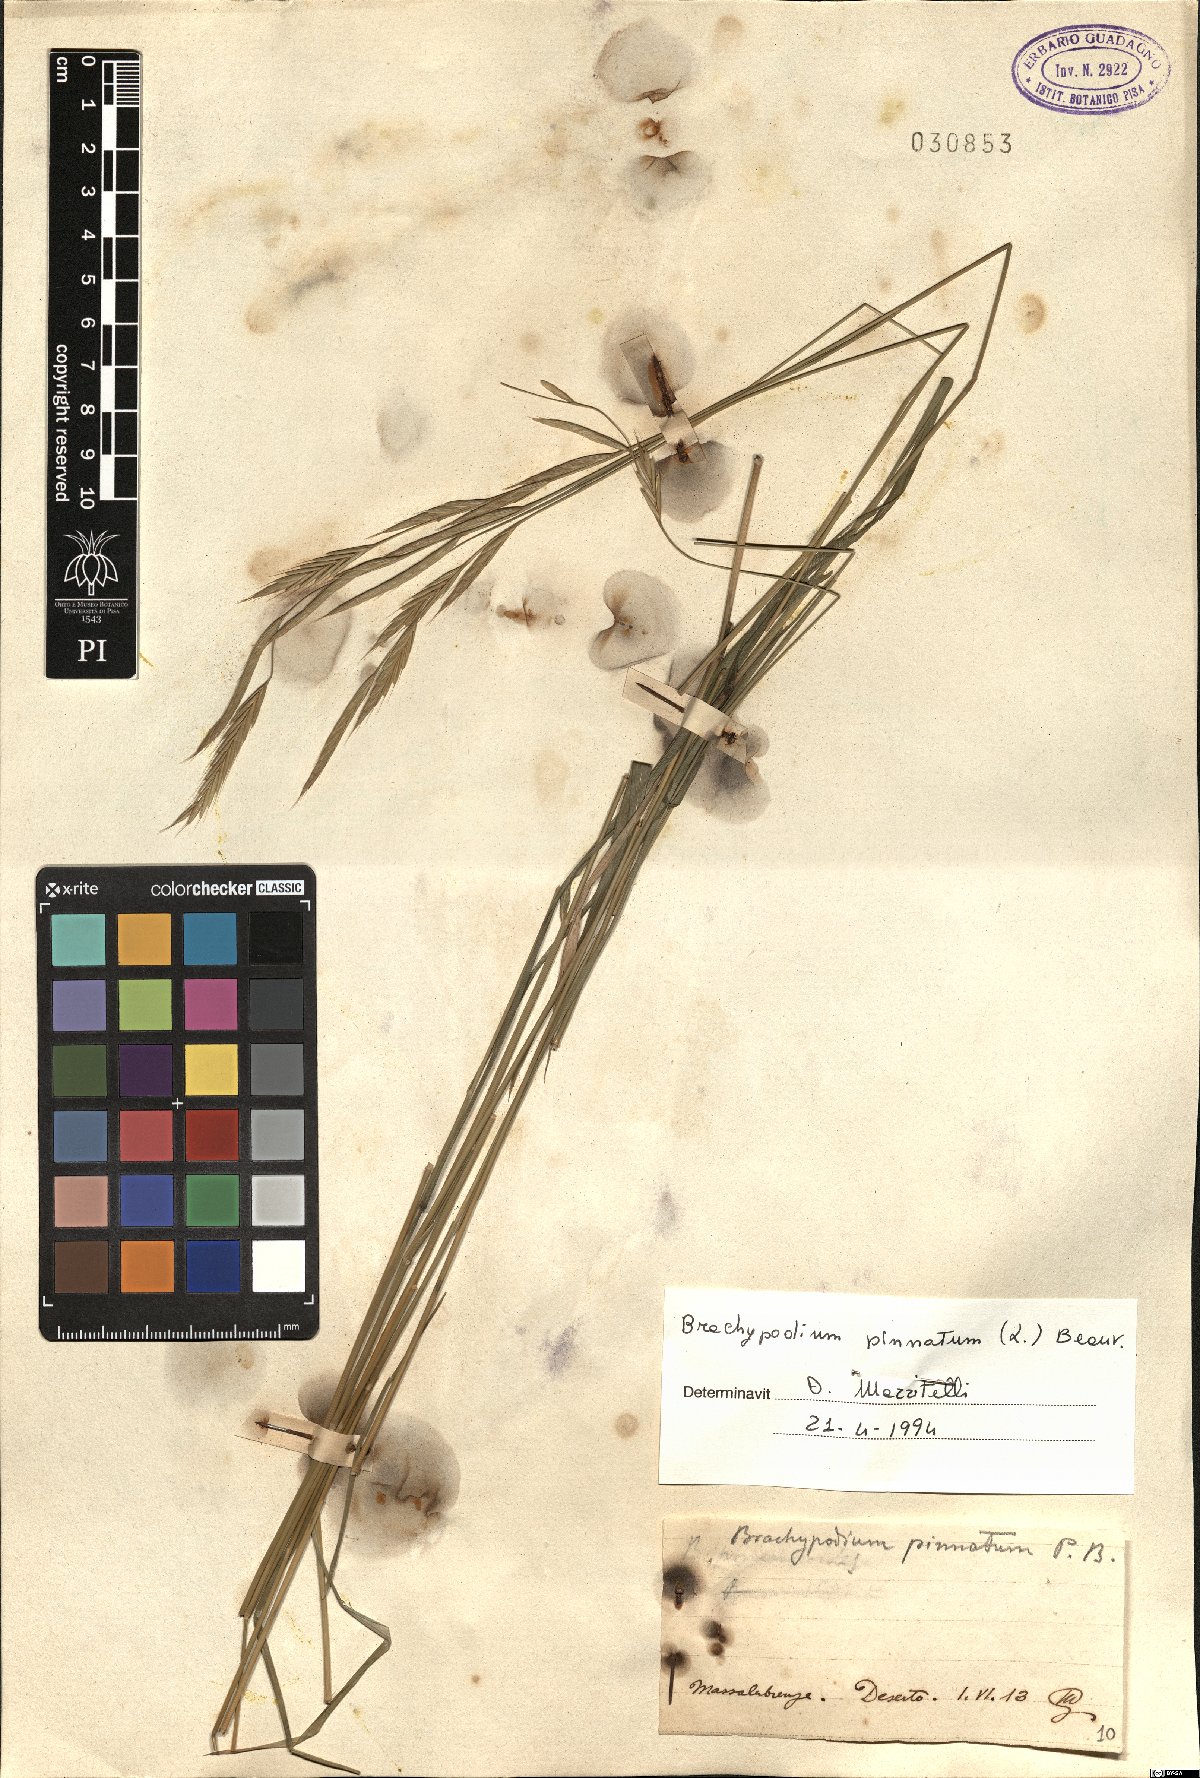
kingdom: Plantae
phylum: Tracheophyta
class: Liliopsida
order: Poales
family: Poaceae
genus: Brachypodium
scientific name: Brachypodium pinnatum
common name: Tor grass
